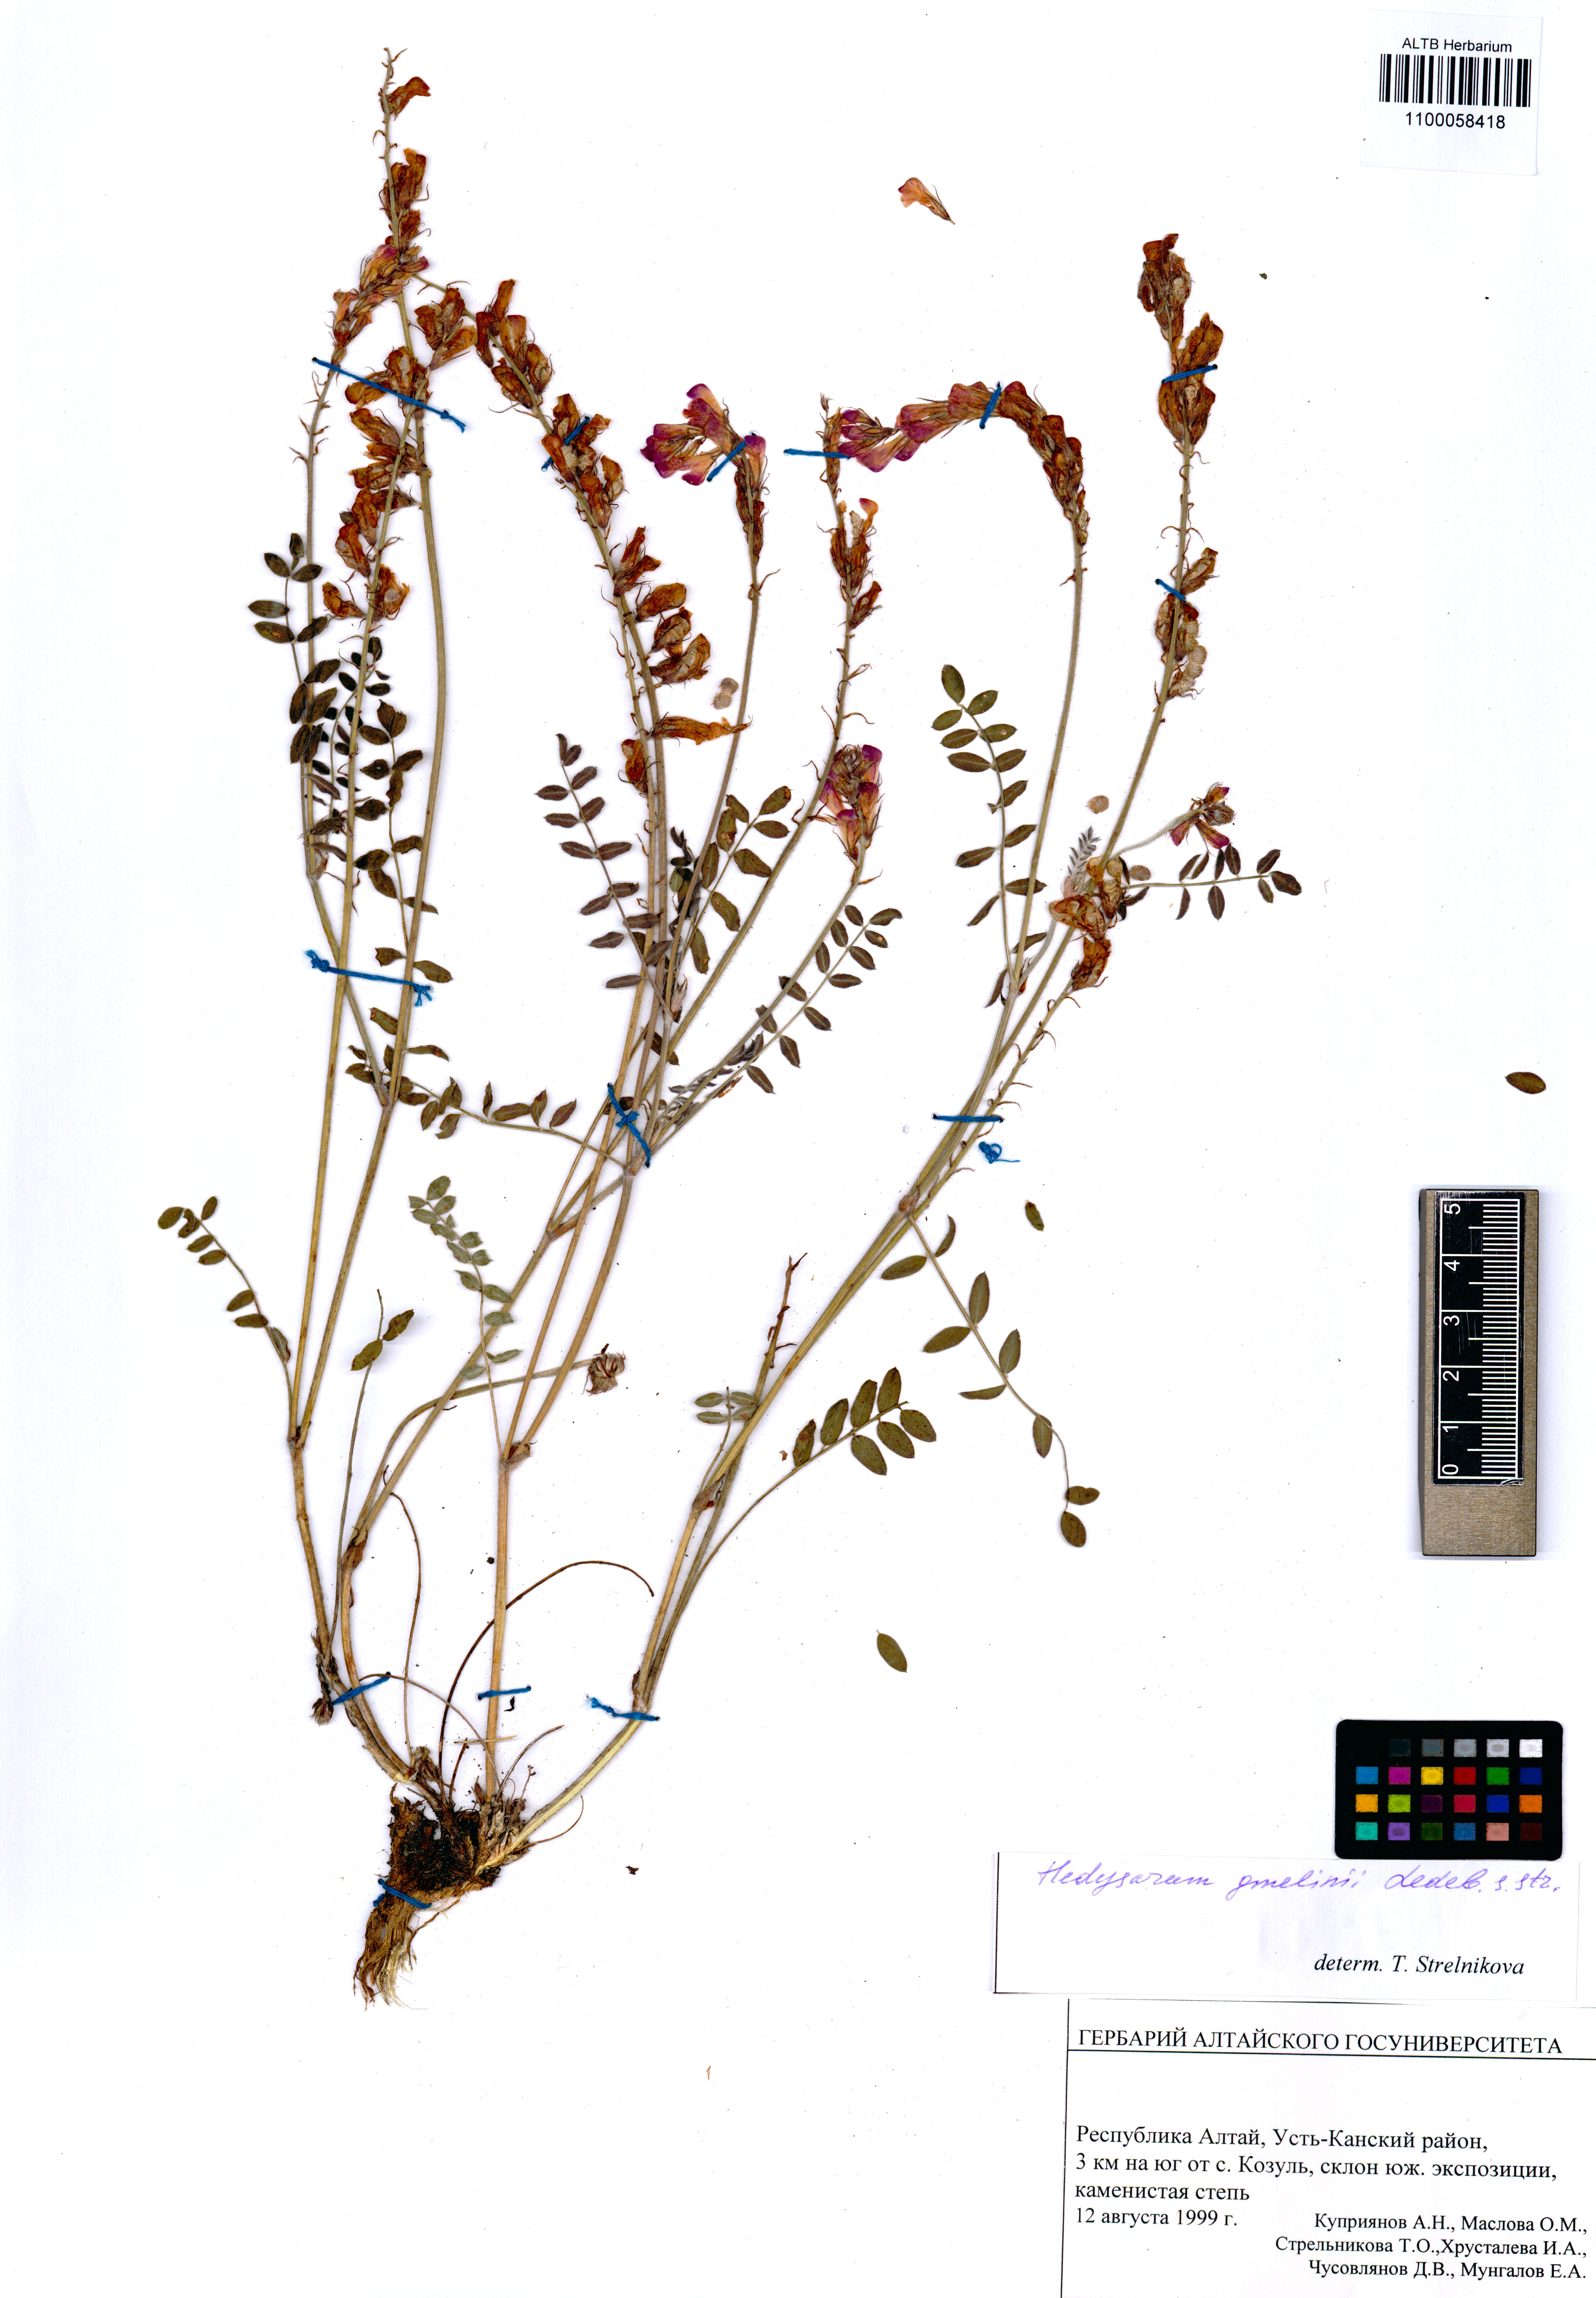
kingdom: Plantae
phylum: Tracheophyta
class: Magnoliopsida
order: Fabales
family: Fabaceae
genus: Hedysarum
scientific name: Hedysarum gmelinii
